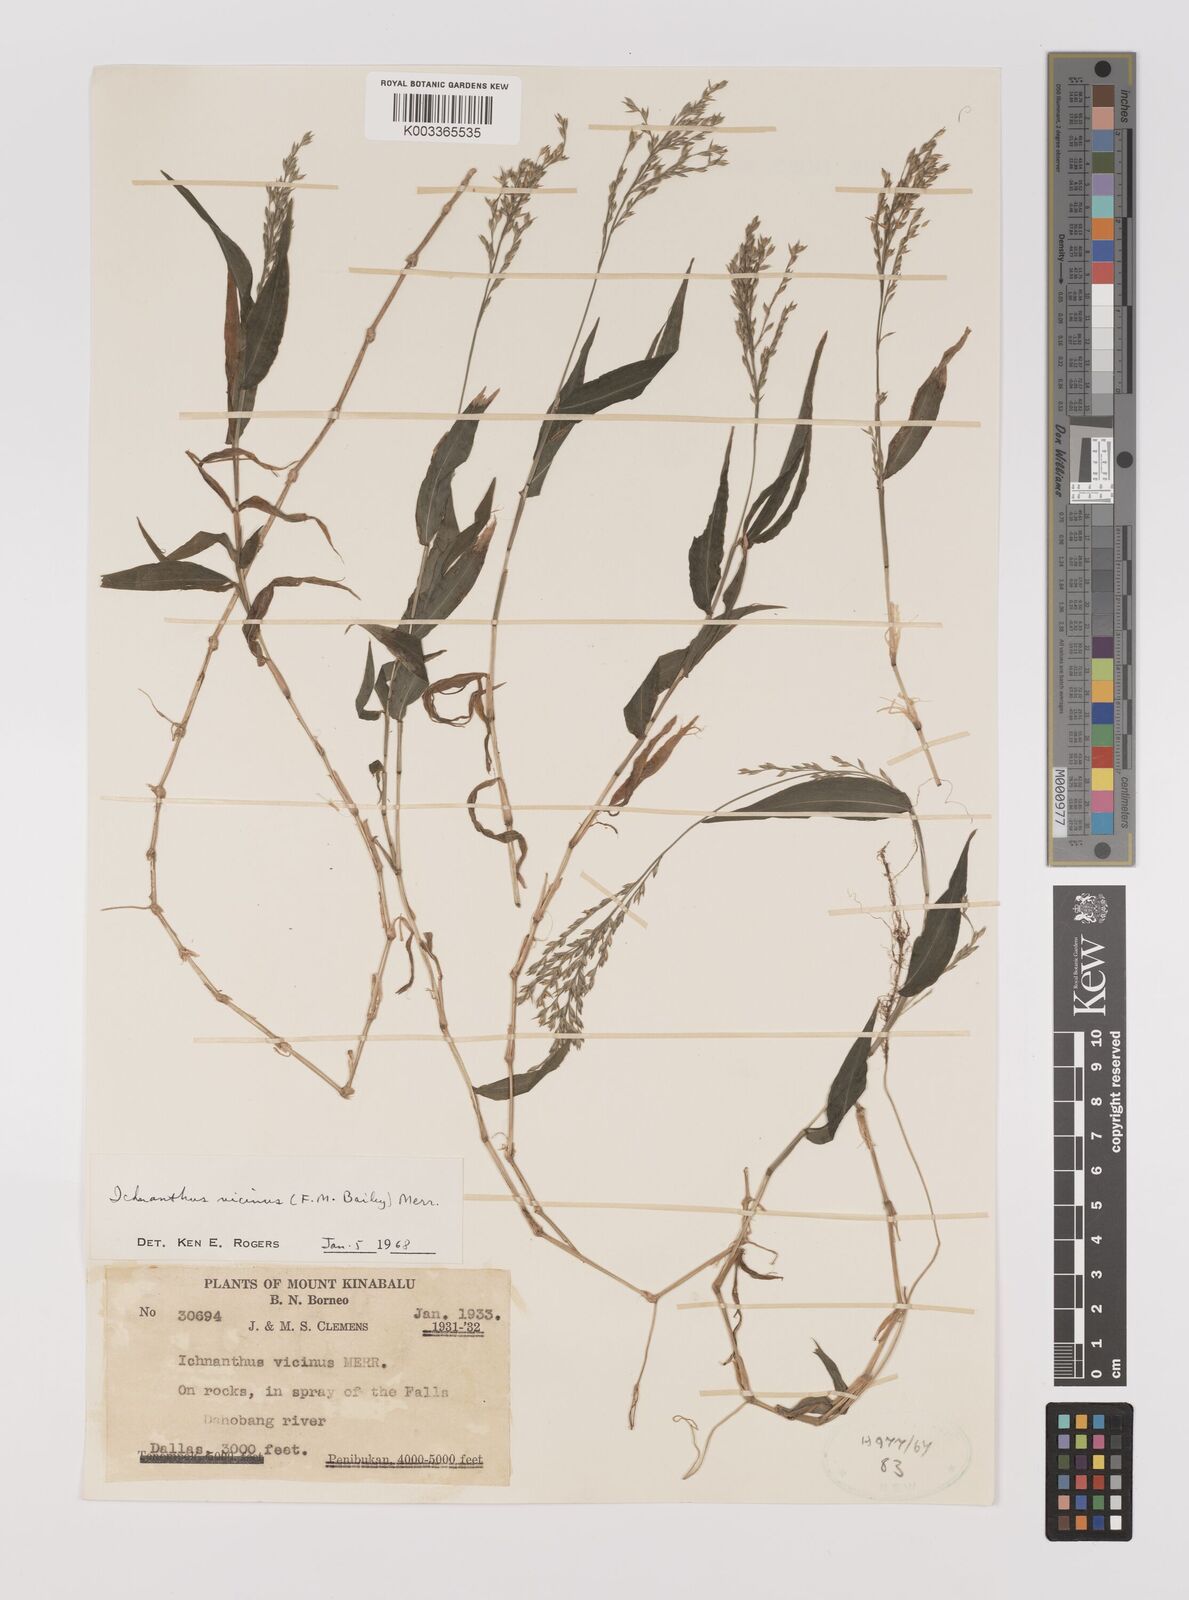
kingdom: Plantae
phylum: Tracheophyta
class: Liliopsida
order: Poales
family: Poaceae
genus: Ichnanthus
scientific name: Ichnanthus pallens
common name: Water grass
